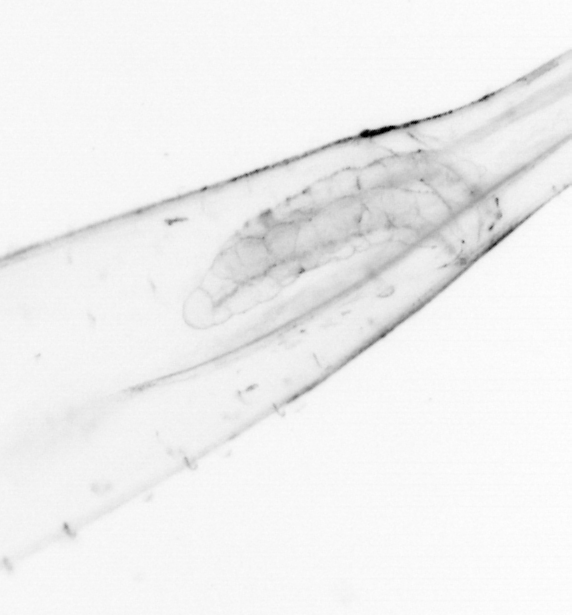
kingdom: Animalia
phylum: Chaetognatha
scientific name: Chaetognatha
